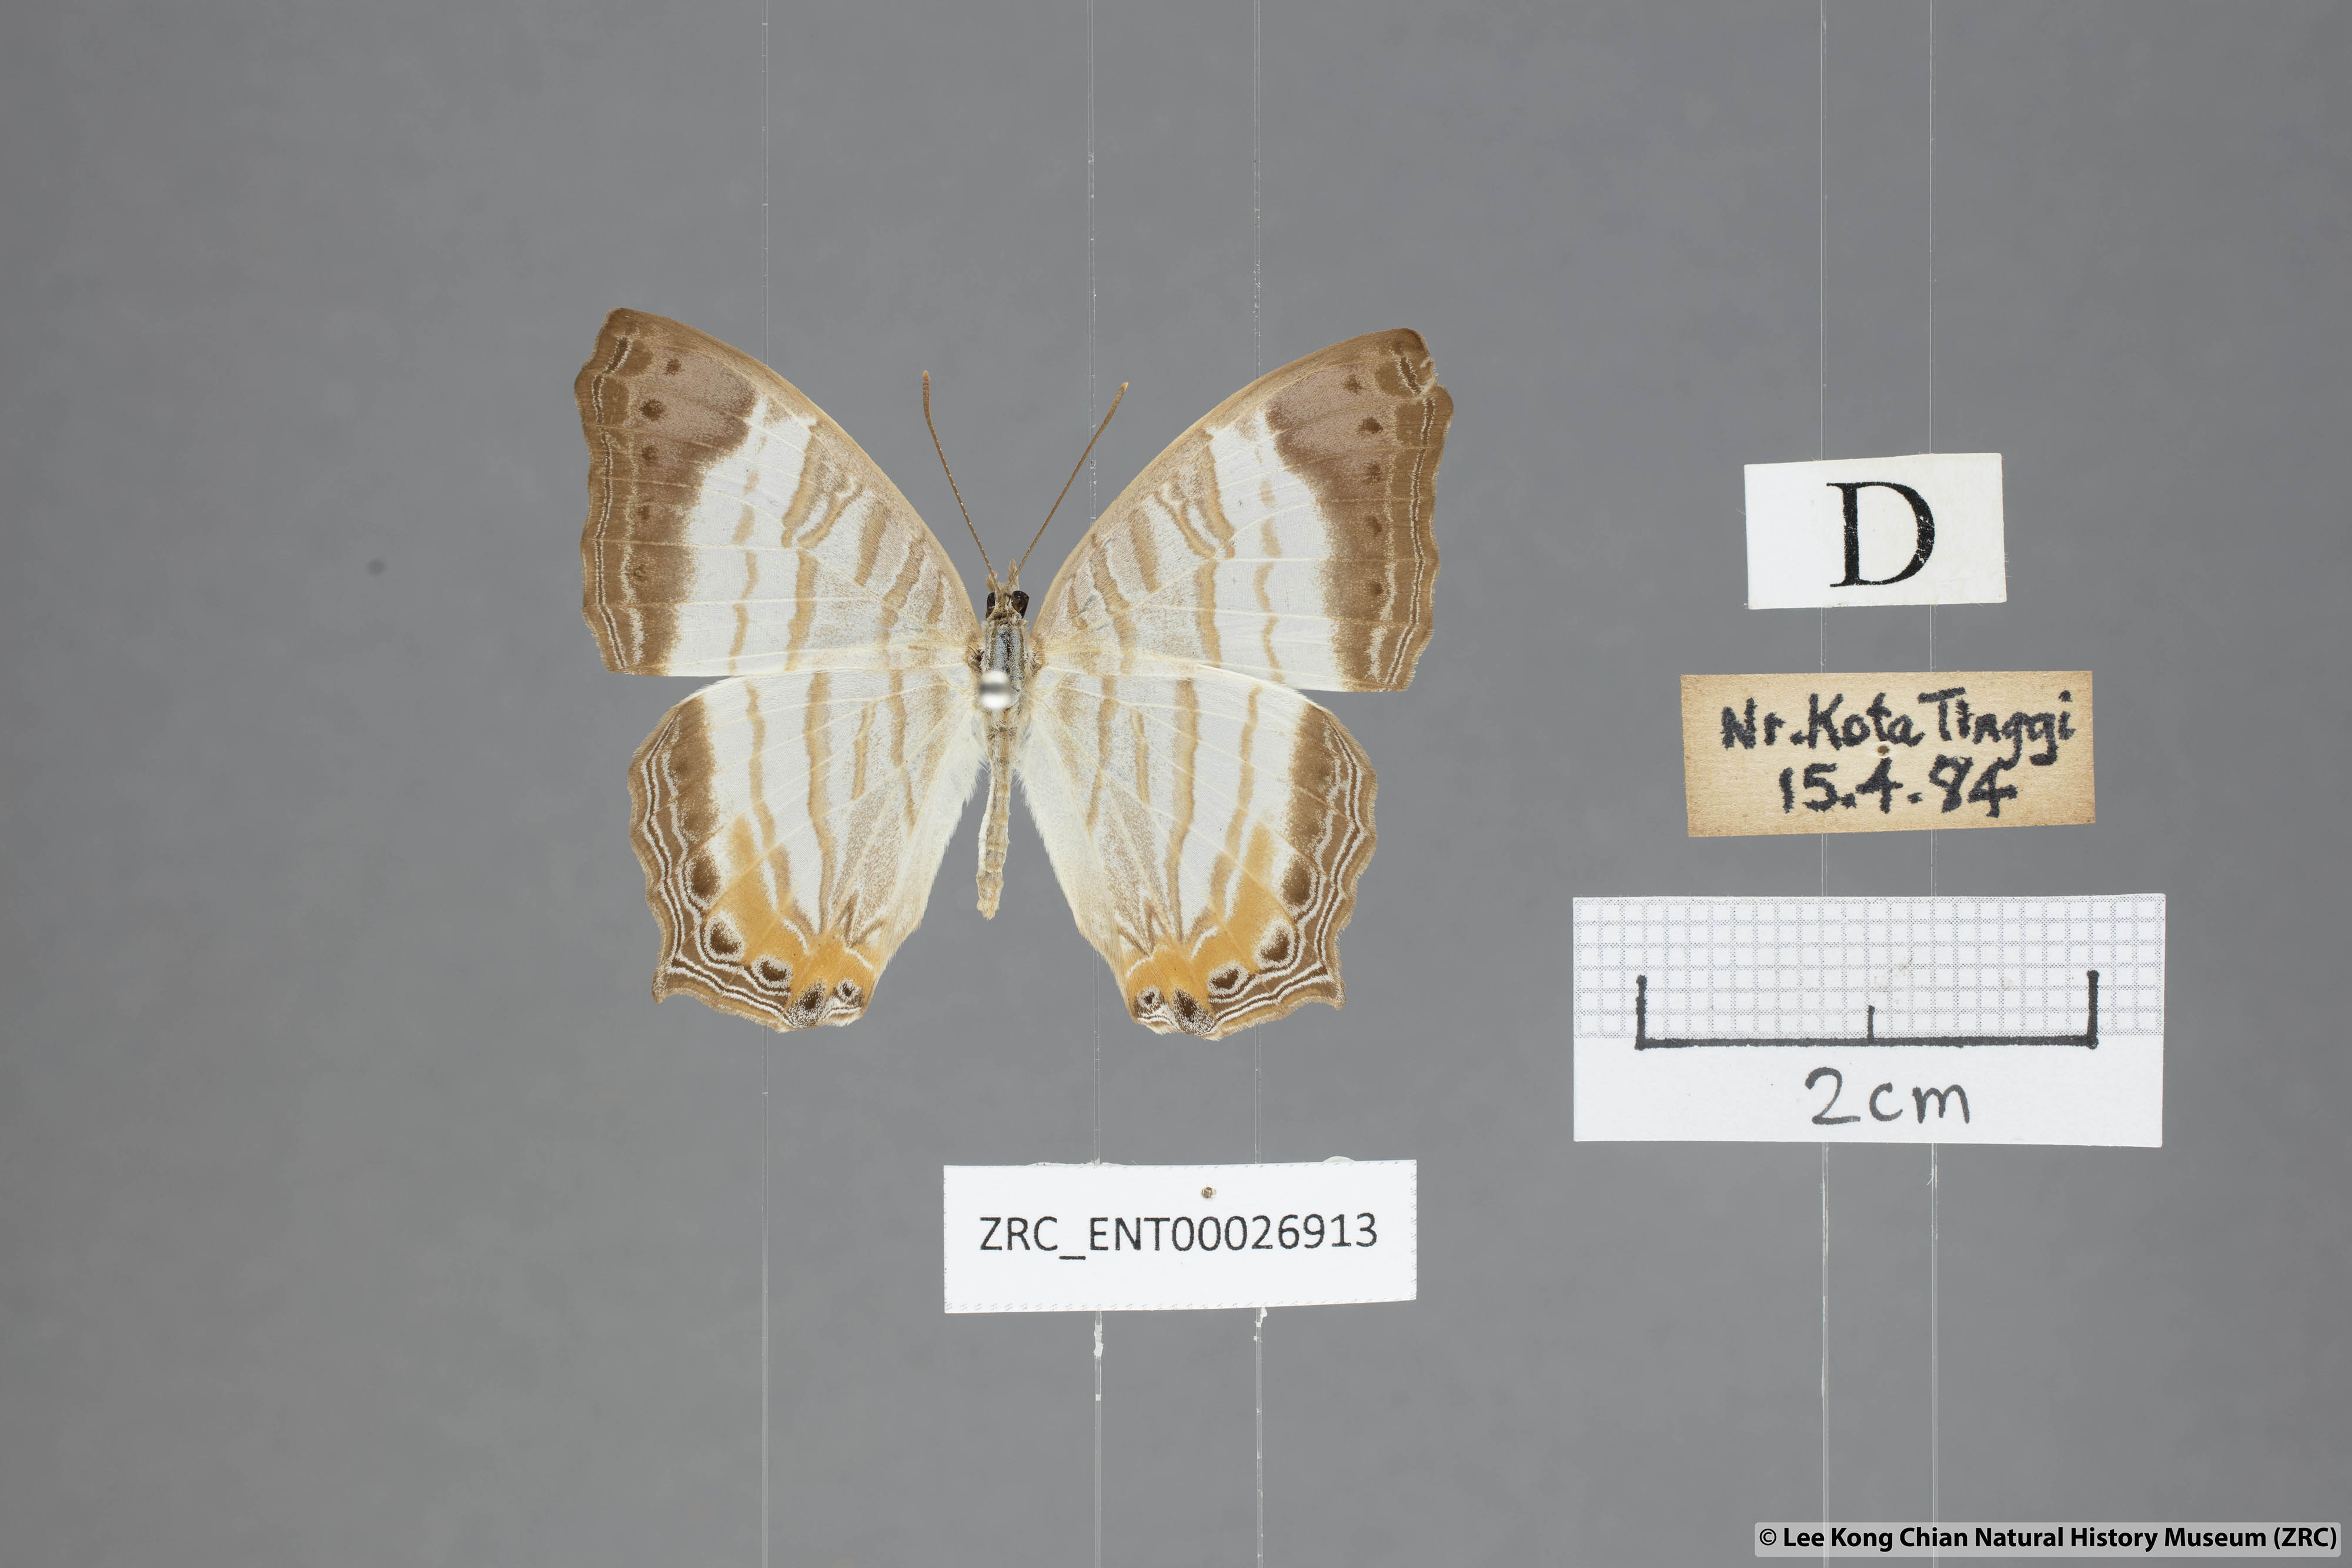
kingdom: Animalia
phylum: Arthropoda
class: Insecta
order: Lepidoptera
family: Nymphalidae
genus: Cyrestis
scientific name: Cyrestis themire
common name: Little mapwing
